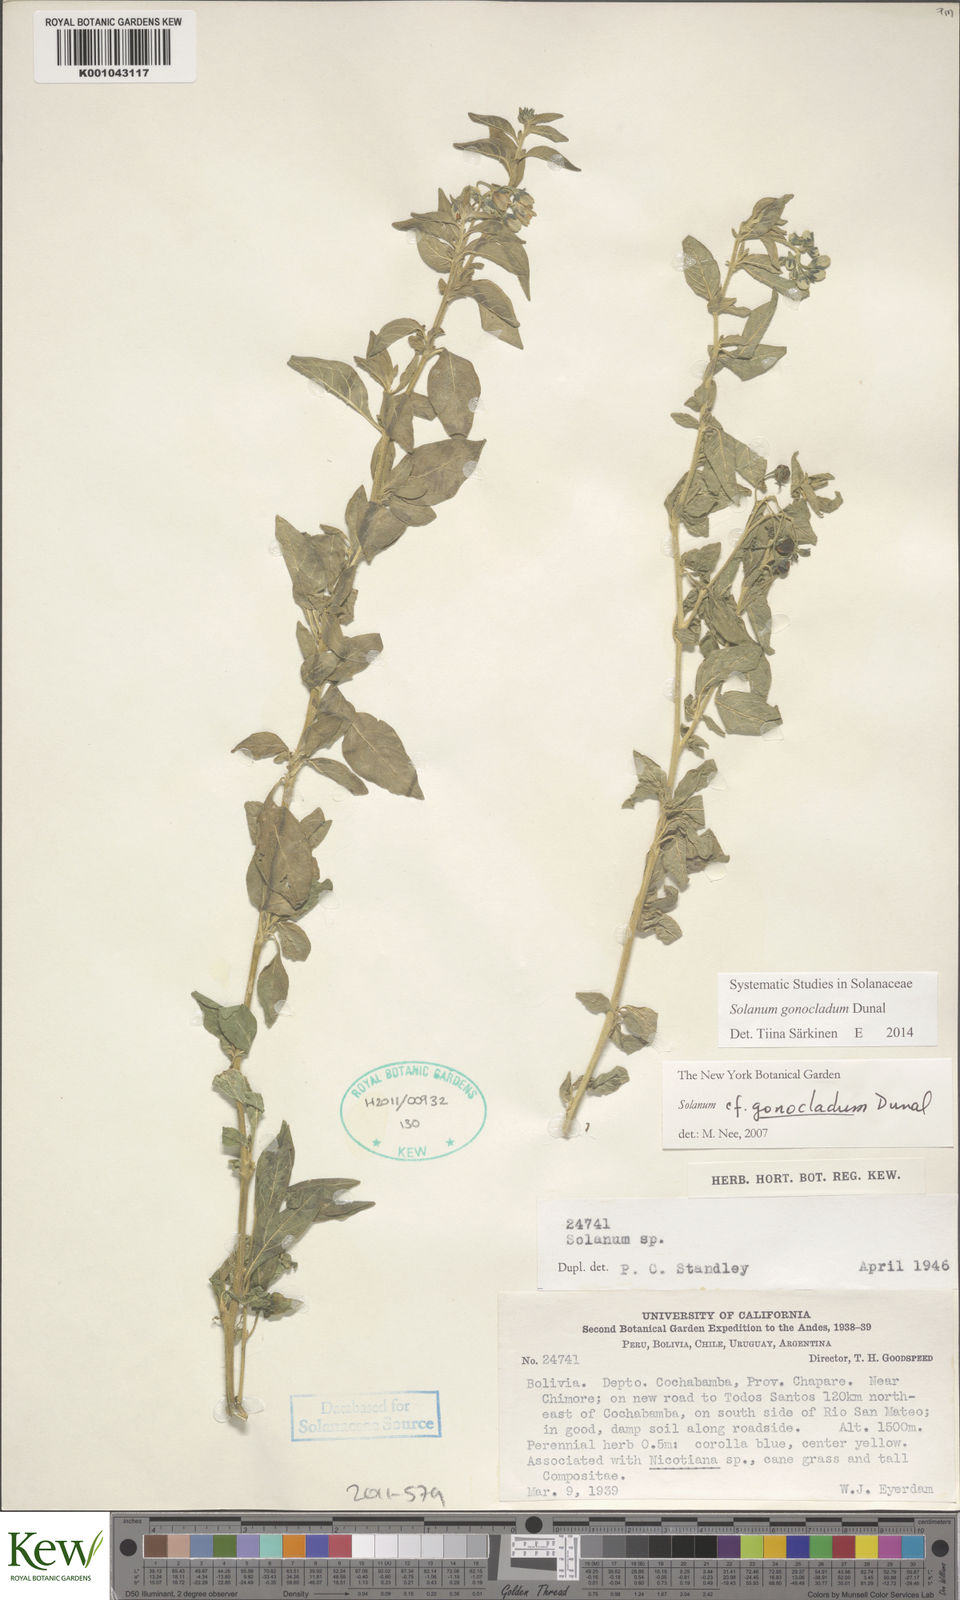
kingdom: Plantae
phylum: Tracheophyta
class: Magnoliopsida
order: Solanales
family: Solanaceae
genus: Solanum
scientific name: Solanum gonocladum
